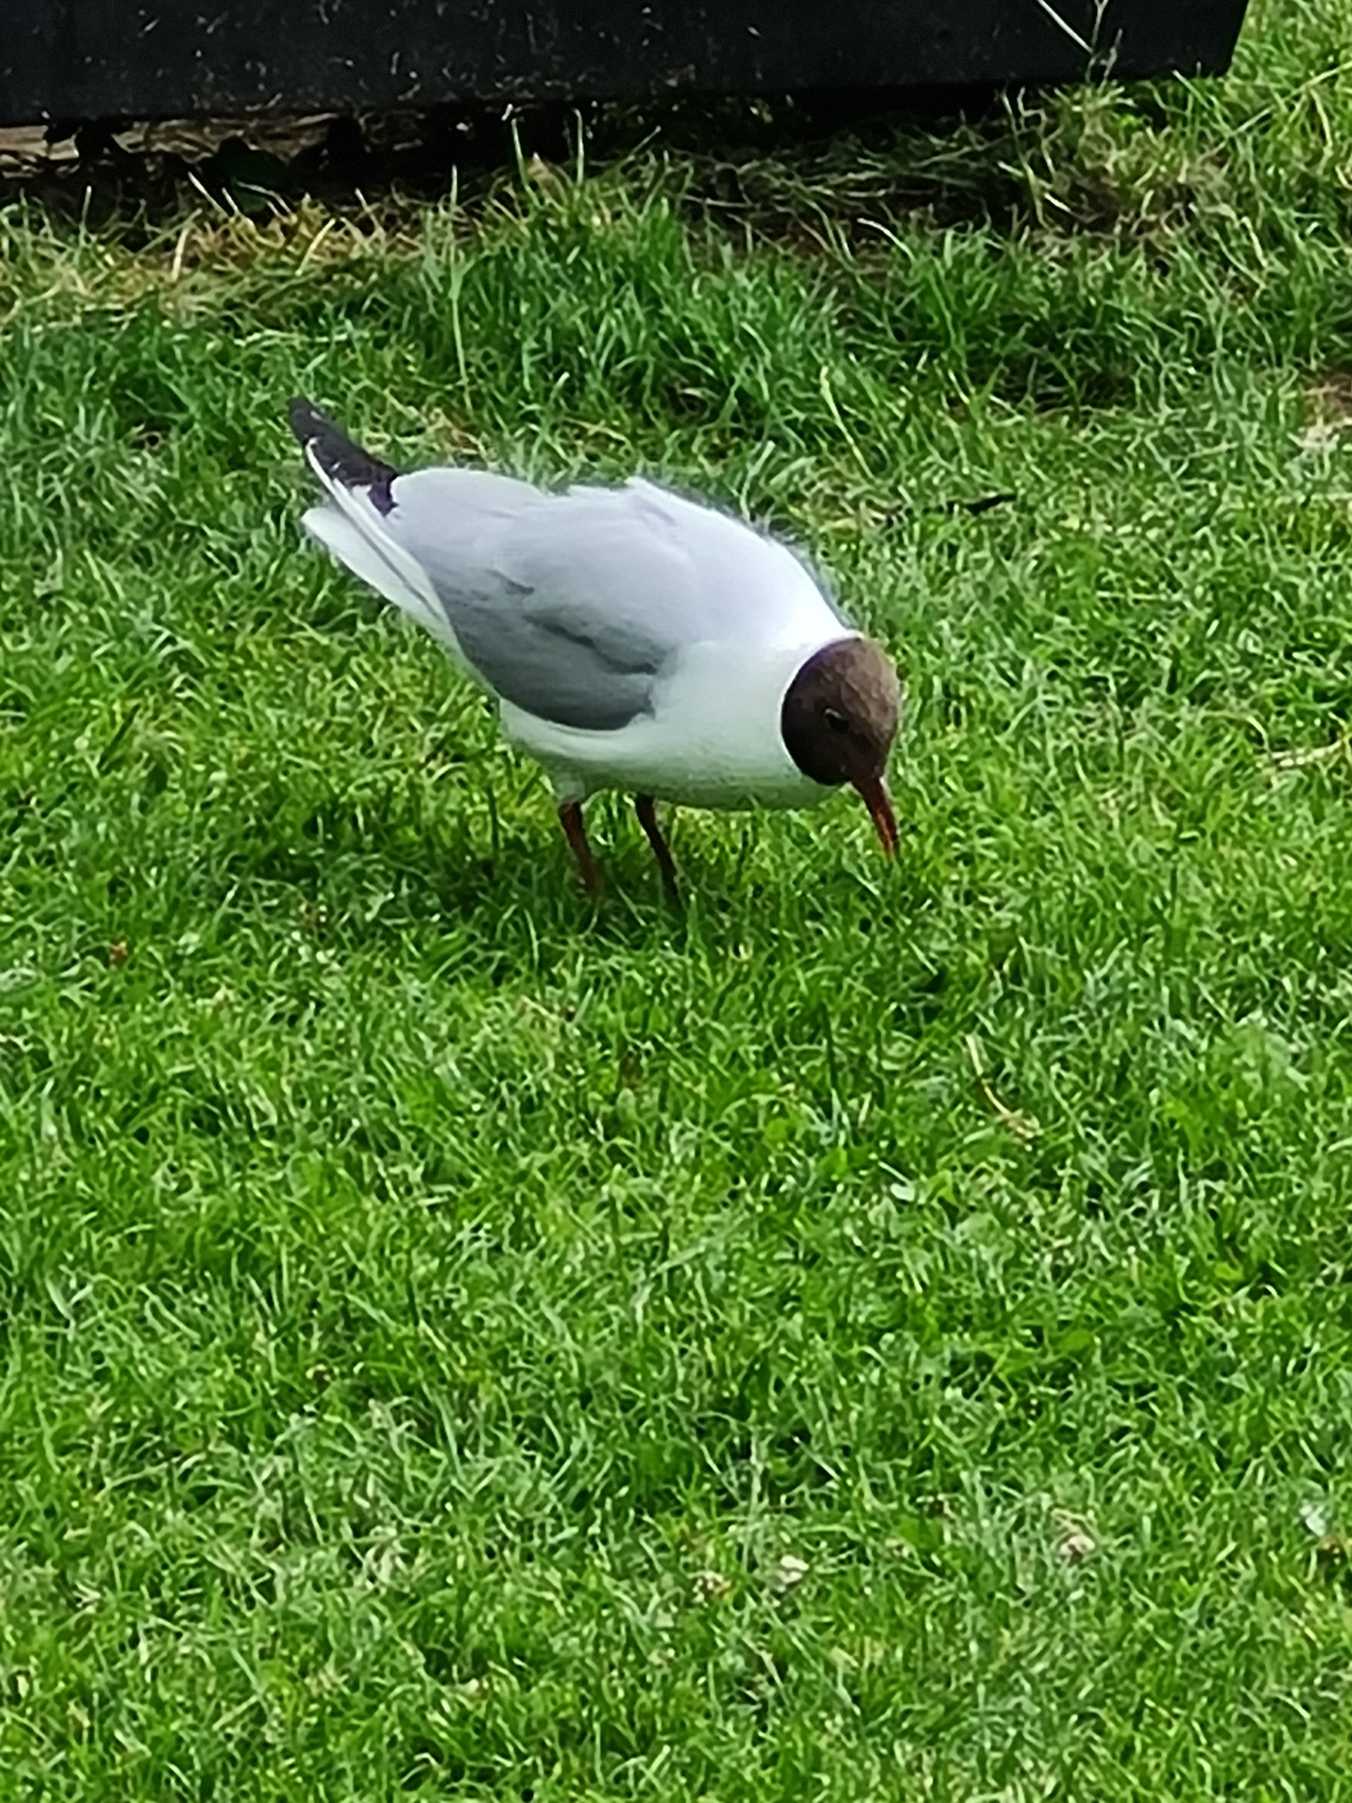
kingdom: Animalia
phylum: Chordata
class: Aves
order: Charadriiformes
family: Laridae
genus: Chroicocephalus
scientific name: Chroicocephalus ridibundus
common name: Hættemåge
